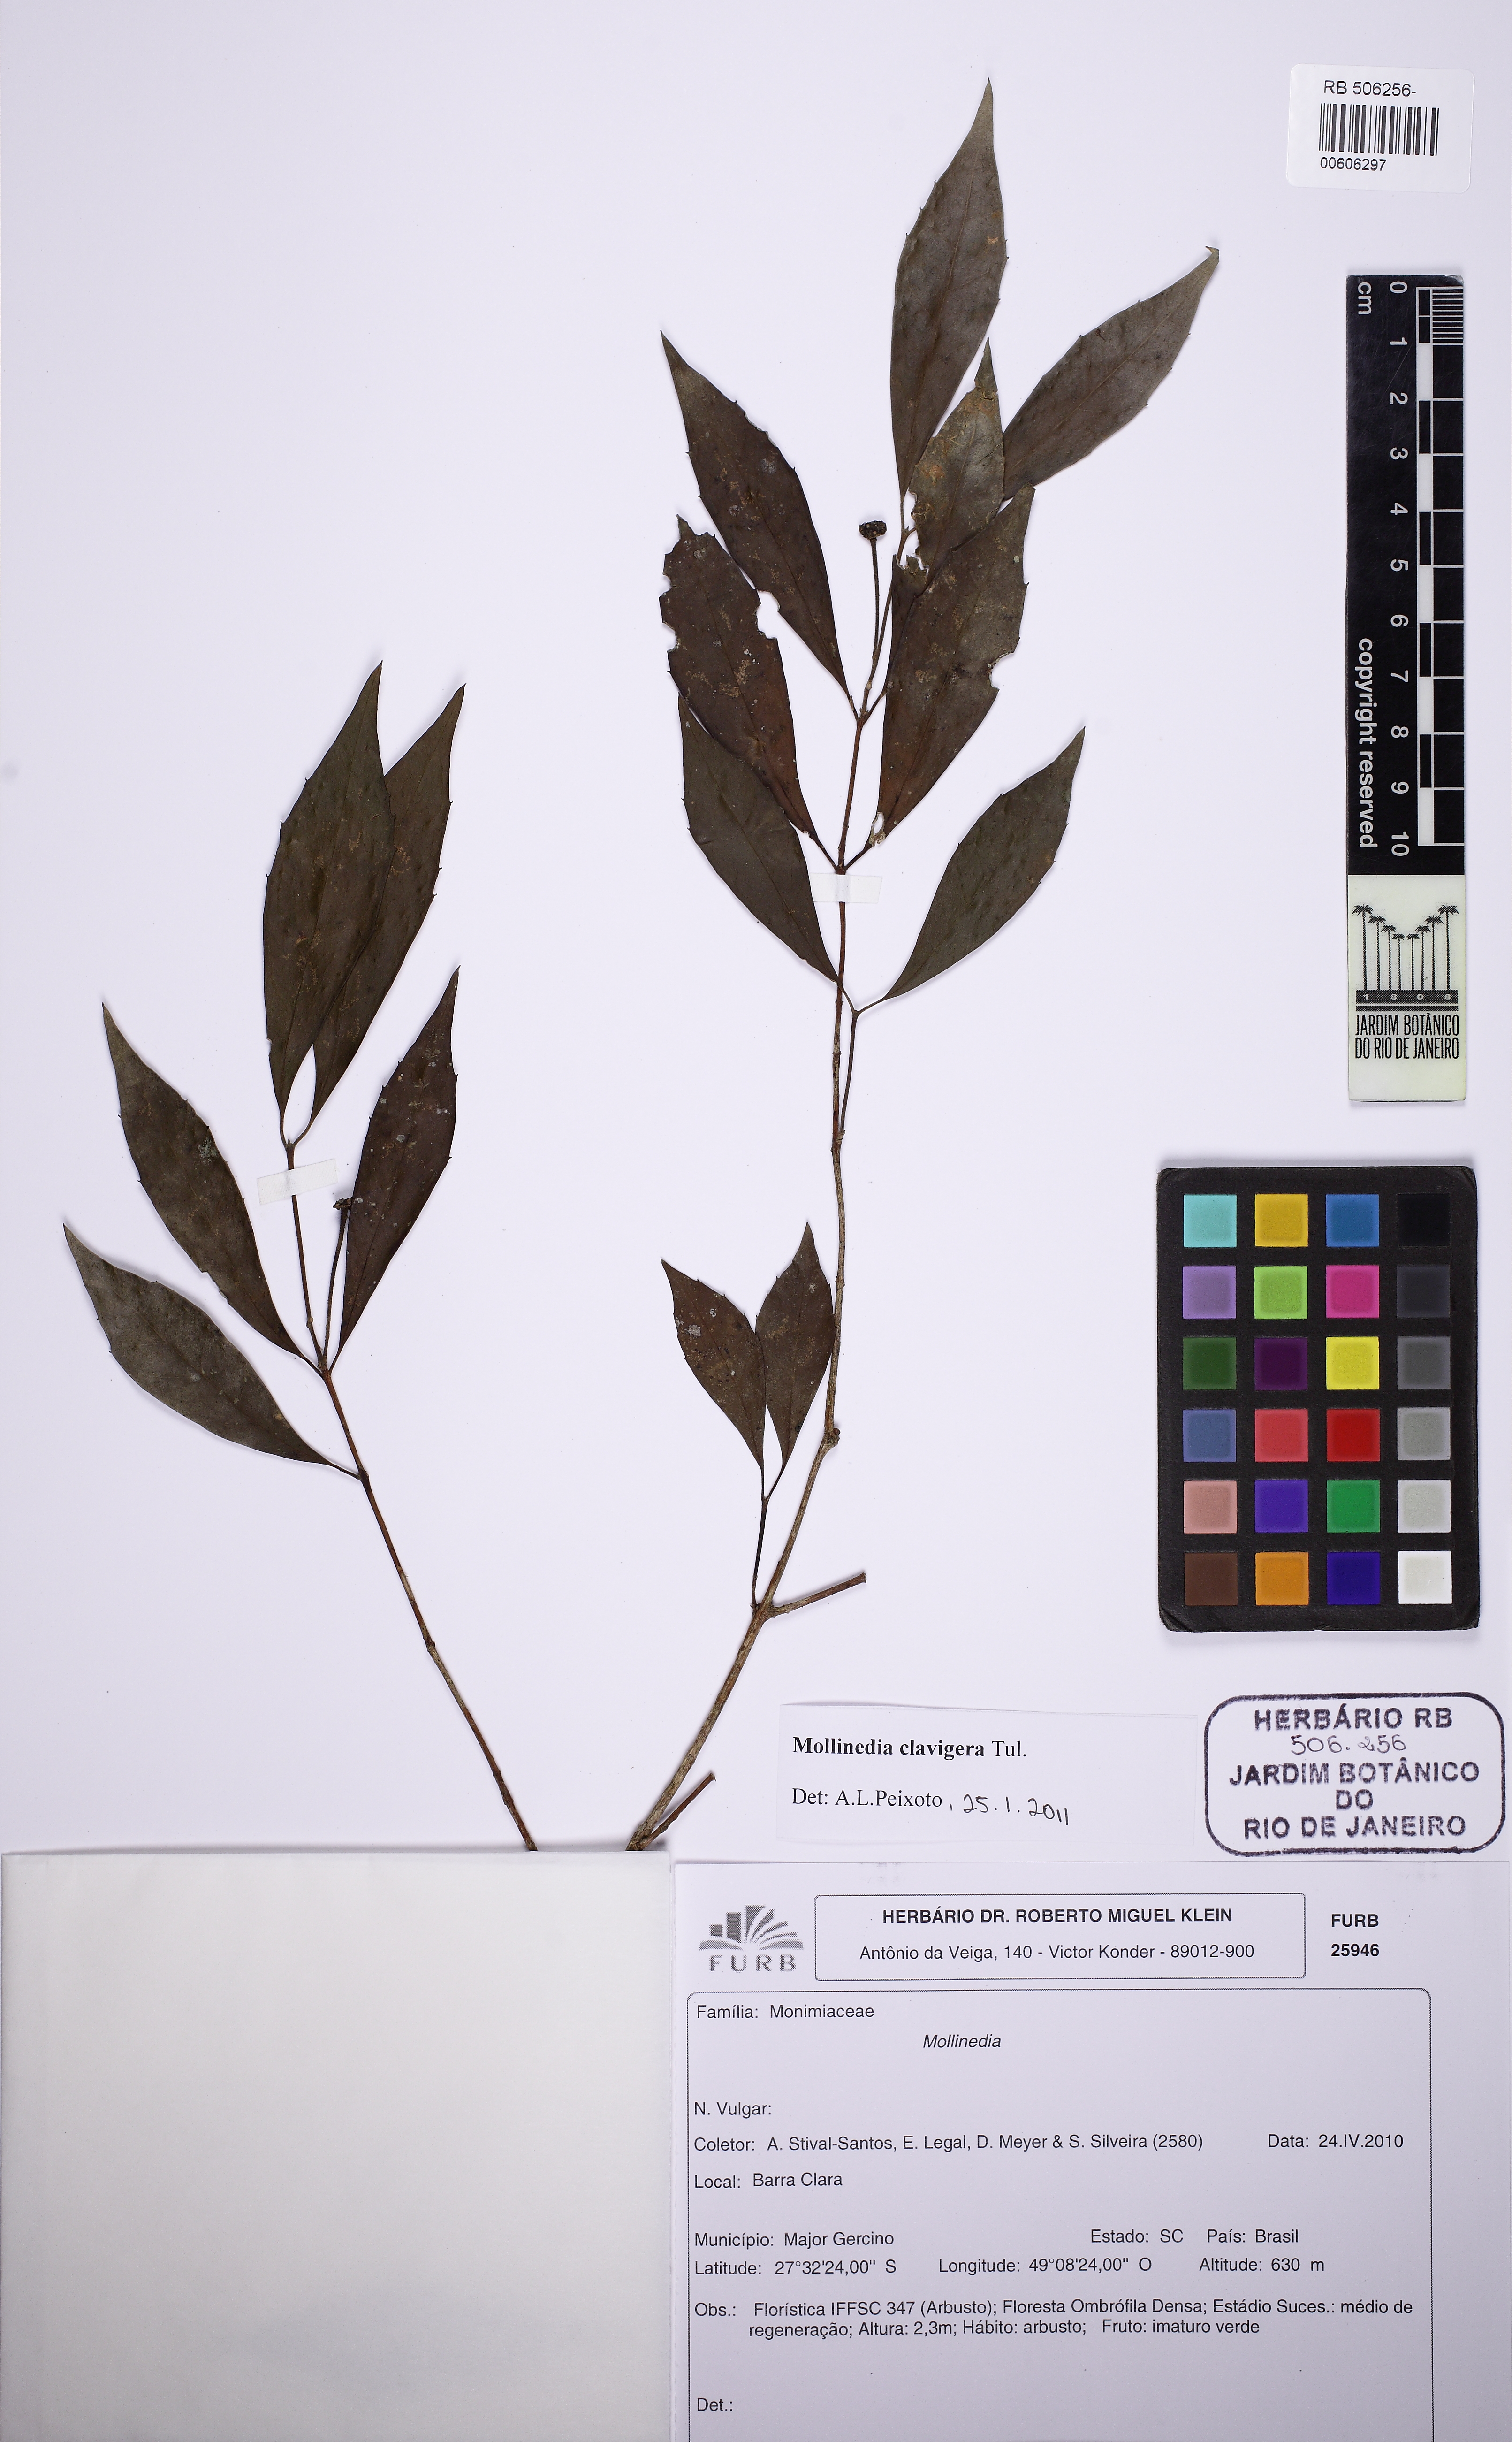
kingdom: Plantae
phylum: Tracheophyta
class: Magnoliopsida
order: Laurales
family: Monimiaceae
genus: Mollinedia
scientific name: Mollinedia clavigera
